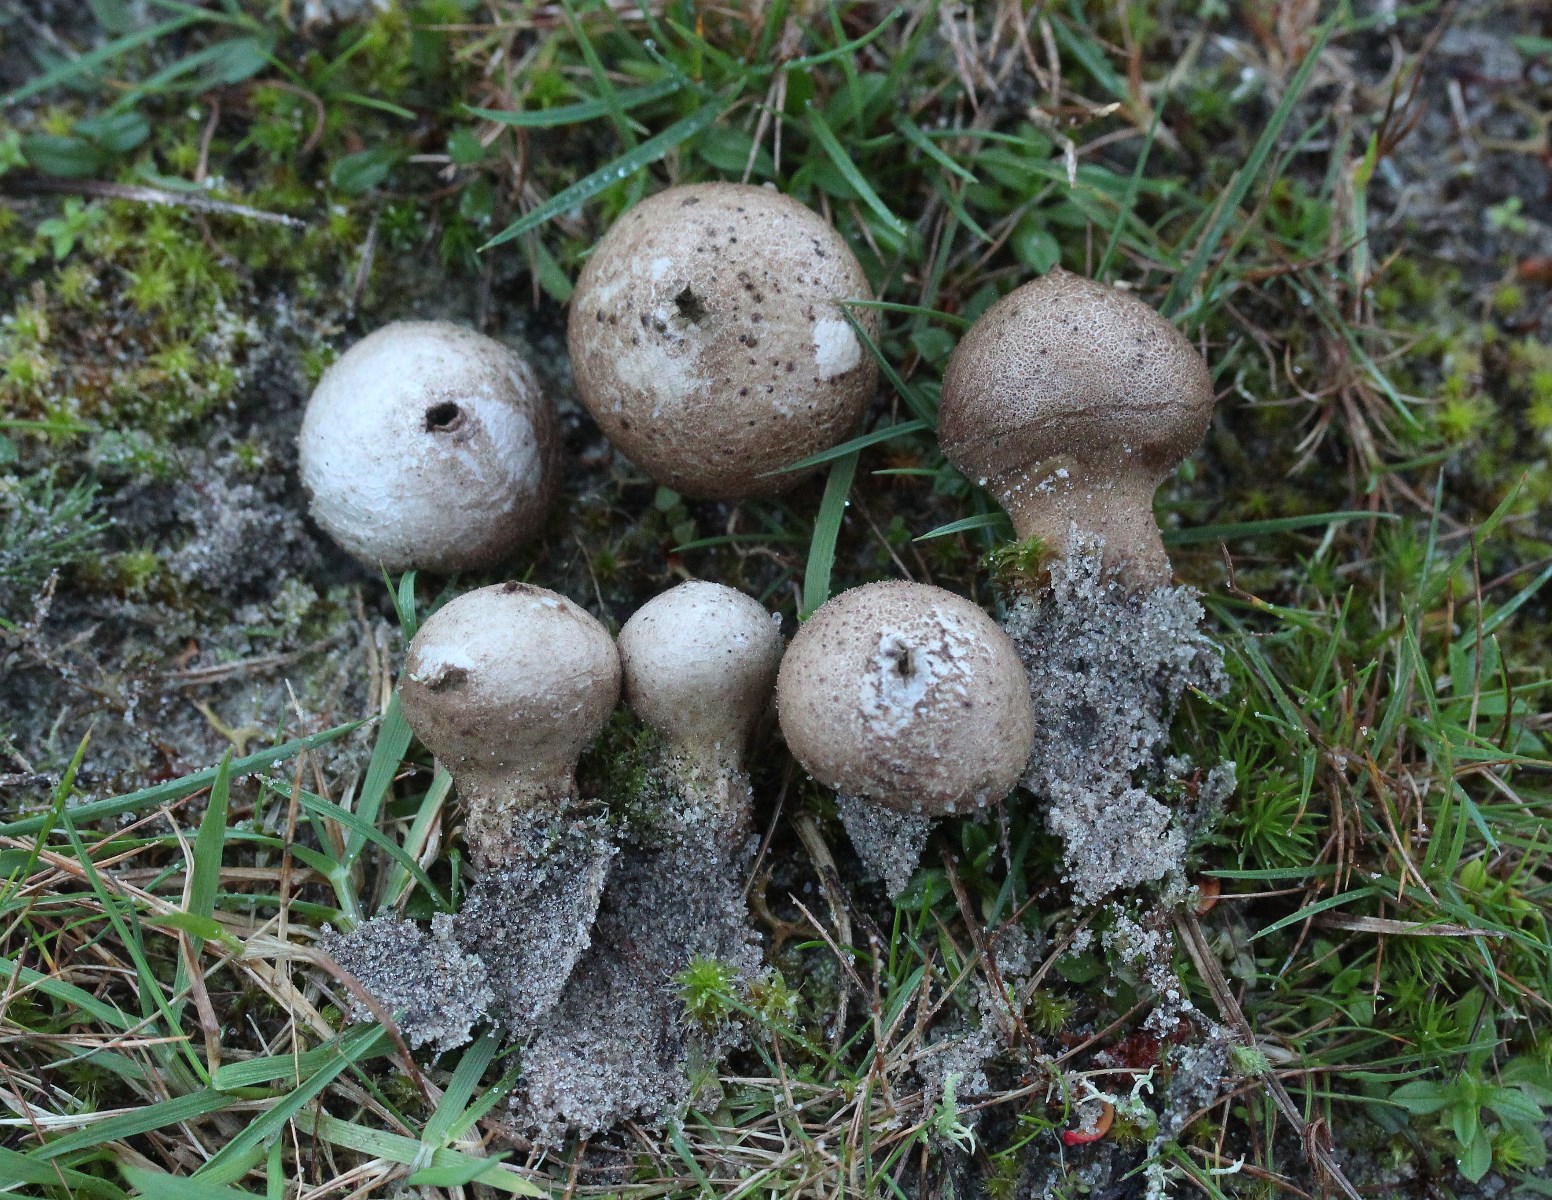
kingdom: Fungi
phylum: Basidiomycota
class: Agaricomycetes
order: Agaricales
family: Lycoperdaceae
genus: Lycoperdon
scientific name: Lycoperdon lividum
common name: mark-støvbold
